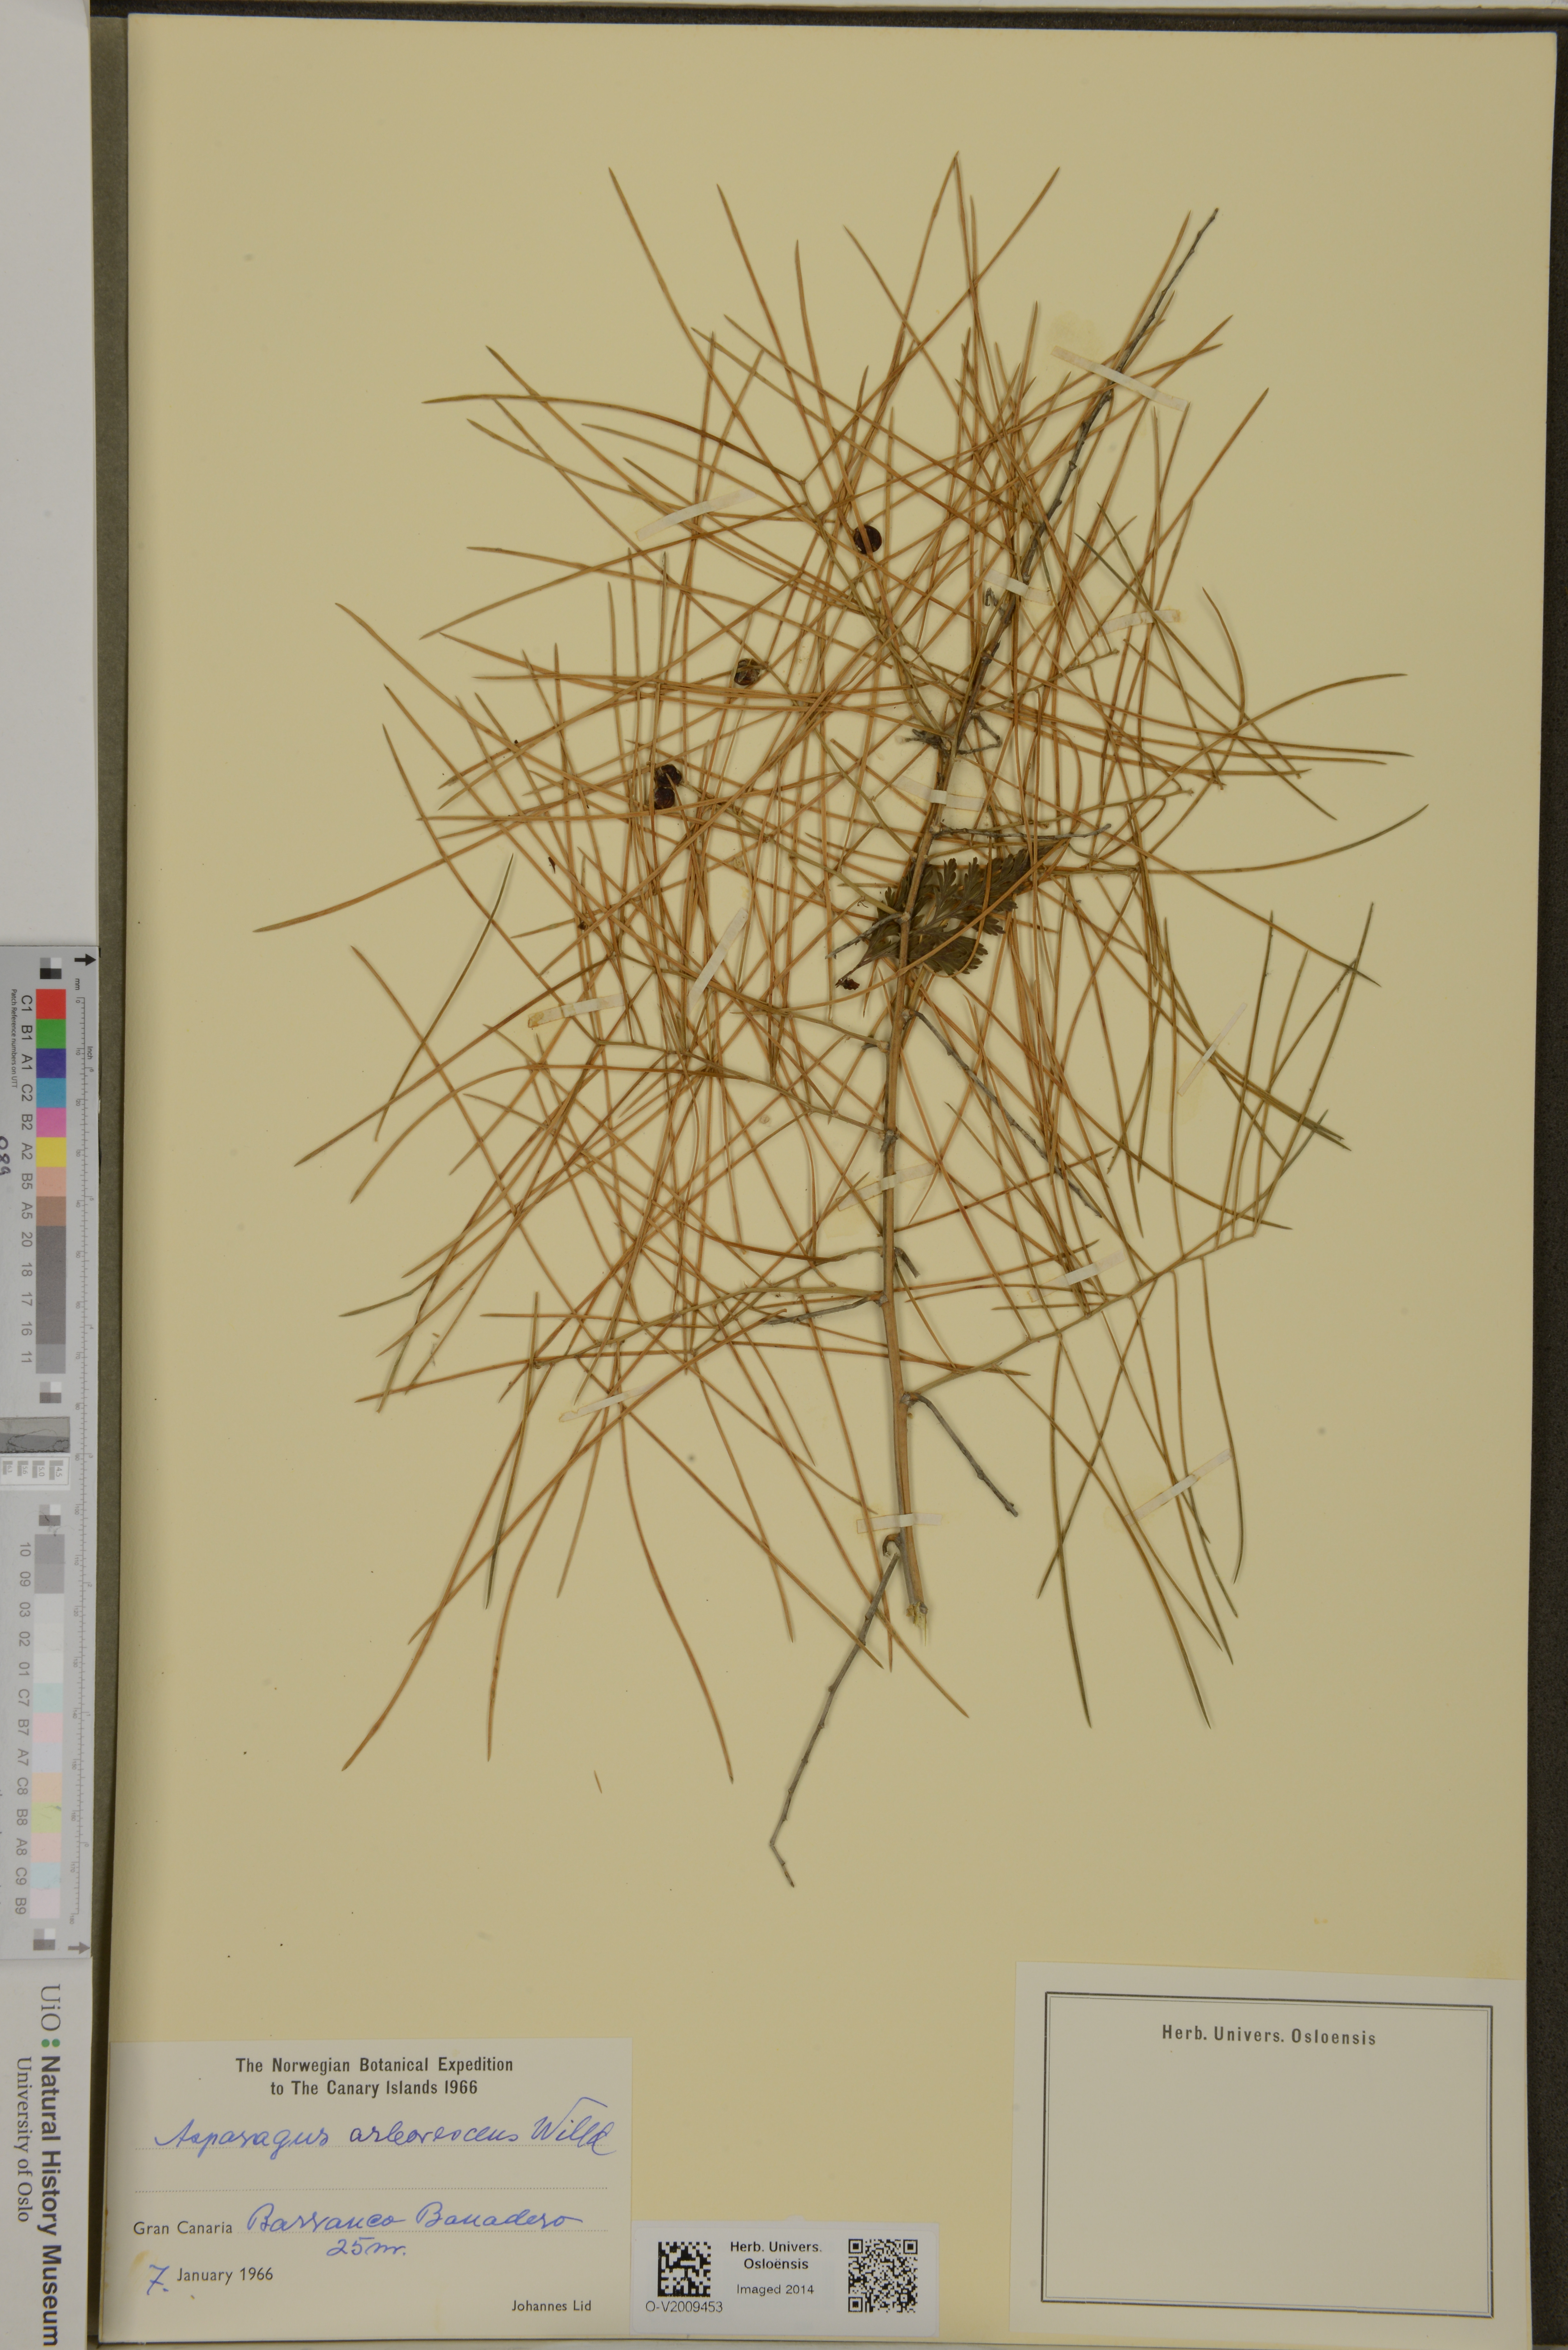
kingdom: Plantae
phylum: Tracheophyta
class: Liliopsida
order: Asparagales
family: Asparagaceae
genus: Asparagus
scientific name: Asparagus arborescens
